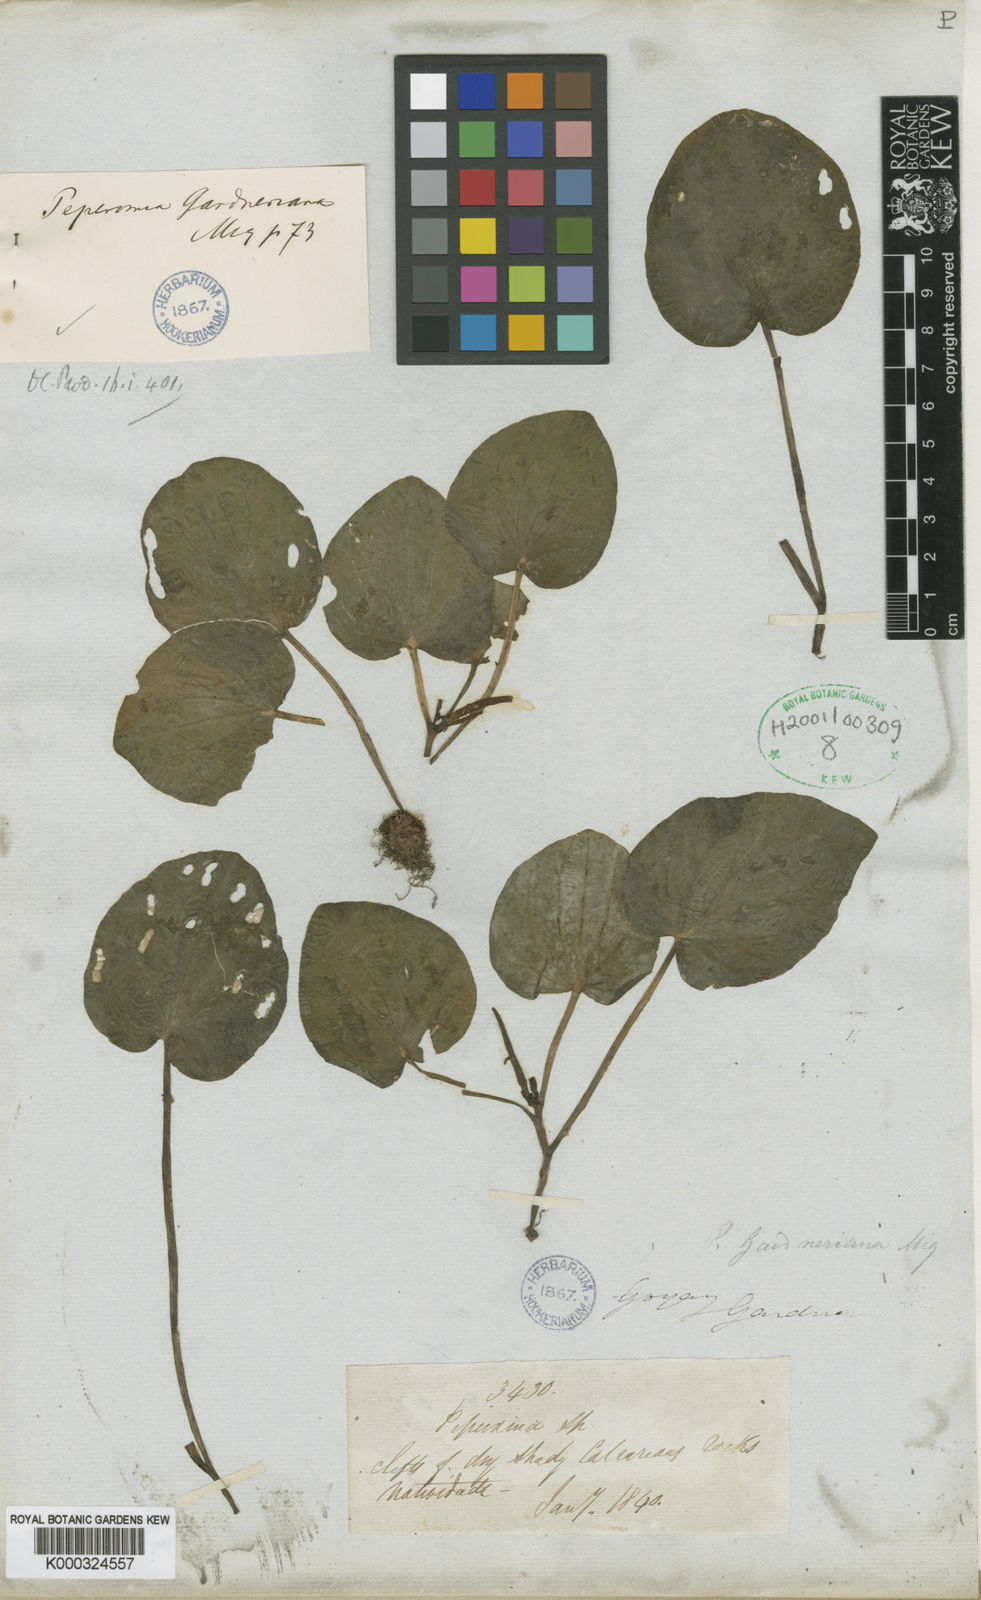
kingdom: Plantae
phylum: Tracheophyta
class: Magnoliopsida
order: Piperales
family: Piperaceae
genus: Peperomia
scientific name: Peperomia gardneriana
